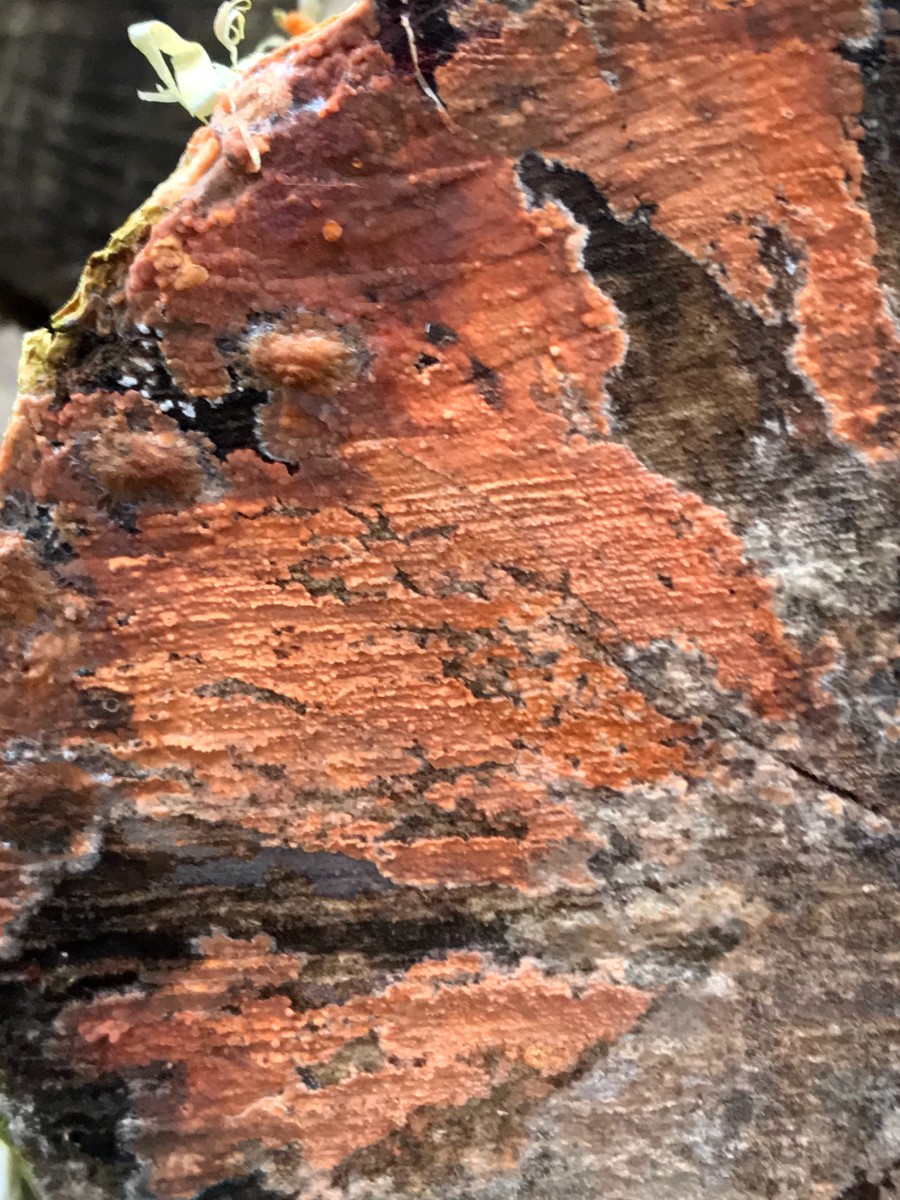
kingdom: Fungi
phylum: Basidiomycota
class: Agaricomycetes
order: Russulales
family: Peniophoraceae
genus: Peniophora
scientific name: Peniophora incarnata
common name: laksefarvet voksskind
